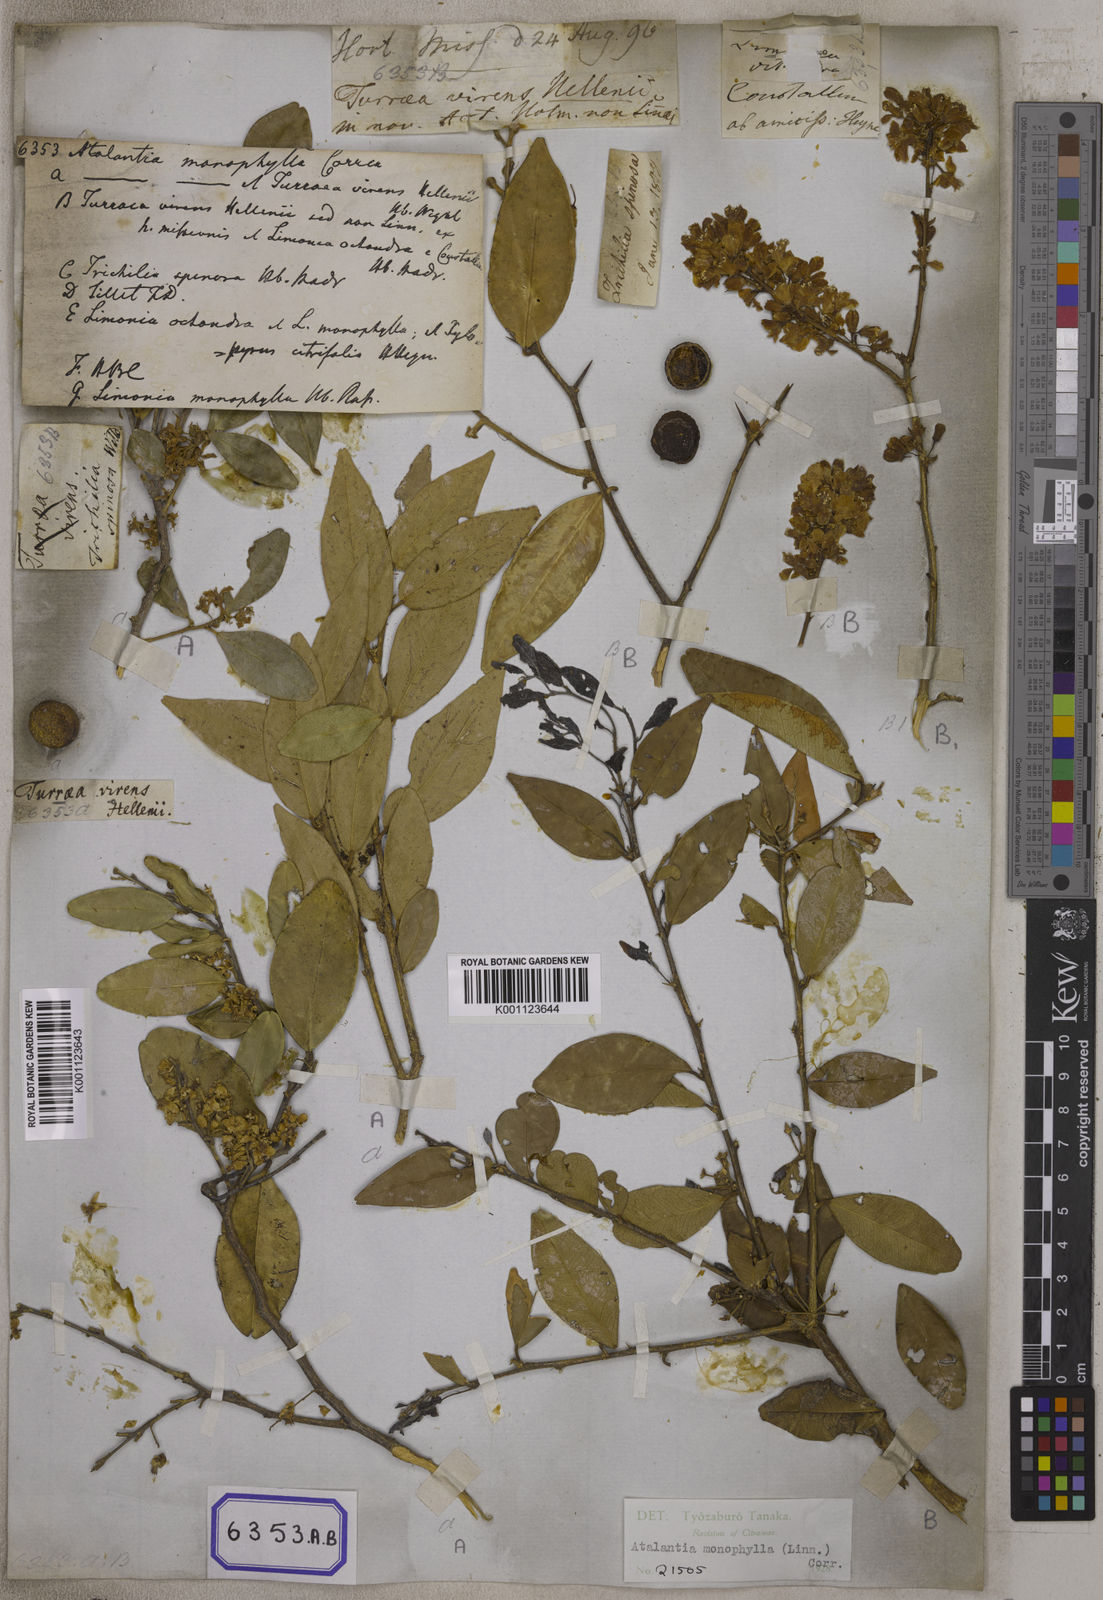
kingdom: Plantae
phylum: Tracheophyta
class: Magnoliopsida
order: Sapindales
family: Rutaceae
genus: Atalantia
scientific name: Atalantia monophylla
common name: Indian-atalantia
